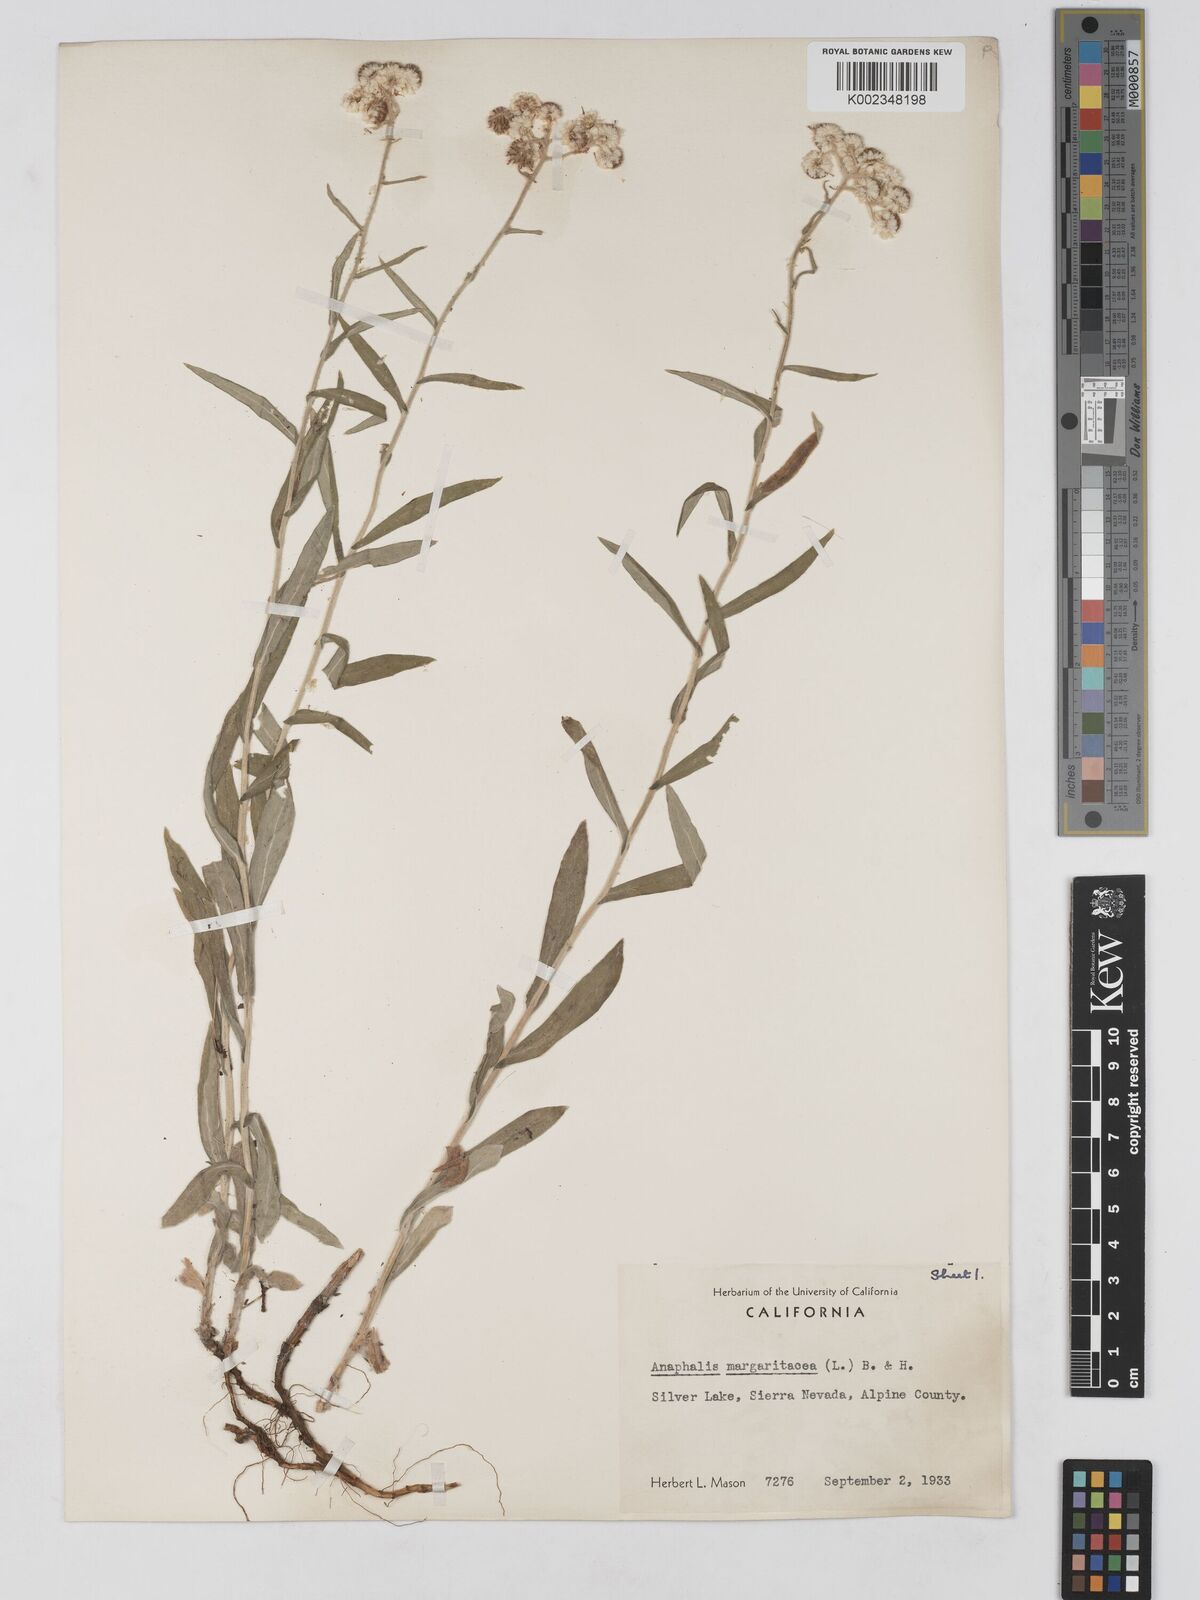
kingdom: Plantae
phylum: Tracheophyta
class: Magnoliopsida
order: Asterales
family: Asteraceae
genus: Anaphalis
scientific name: Anaphalis margaritacea
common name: Pearly everlasting
